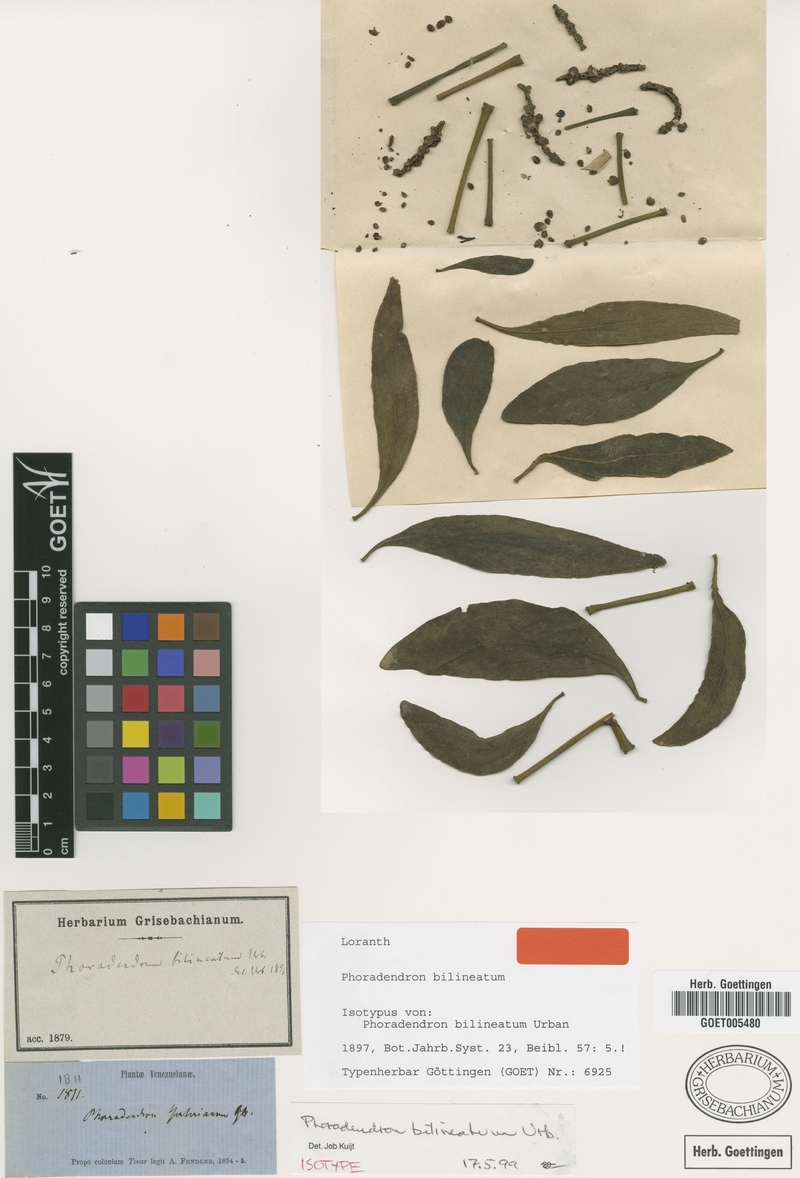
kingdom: Plantae
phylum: Tracheophyta
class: Magnoliopsida
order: Santalales
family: Viscaceae
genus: Phoradendron
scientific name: Phoradendron bilineatum
